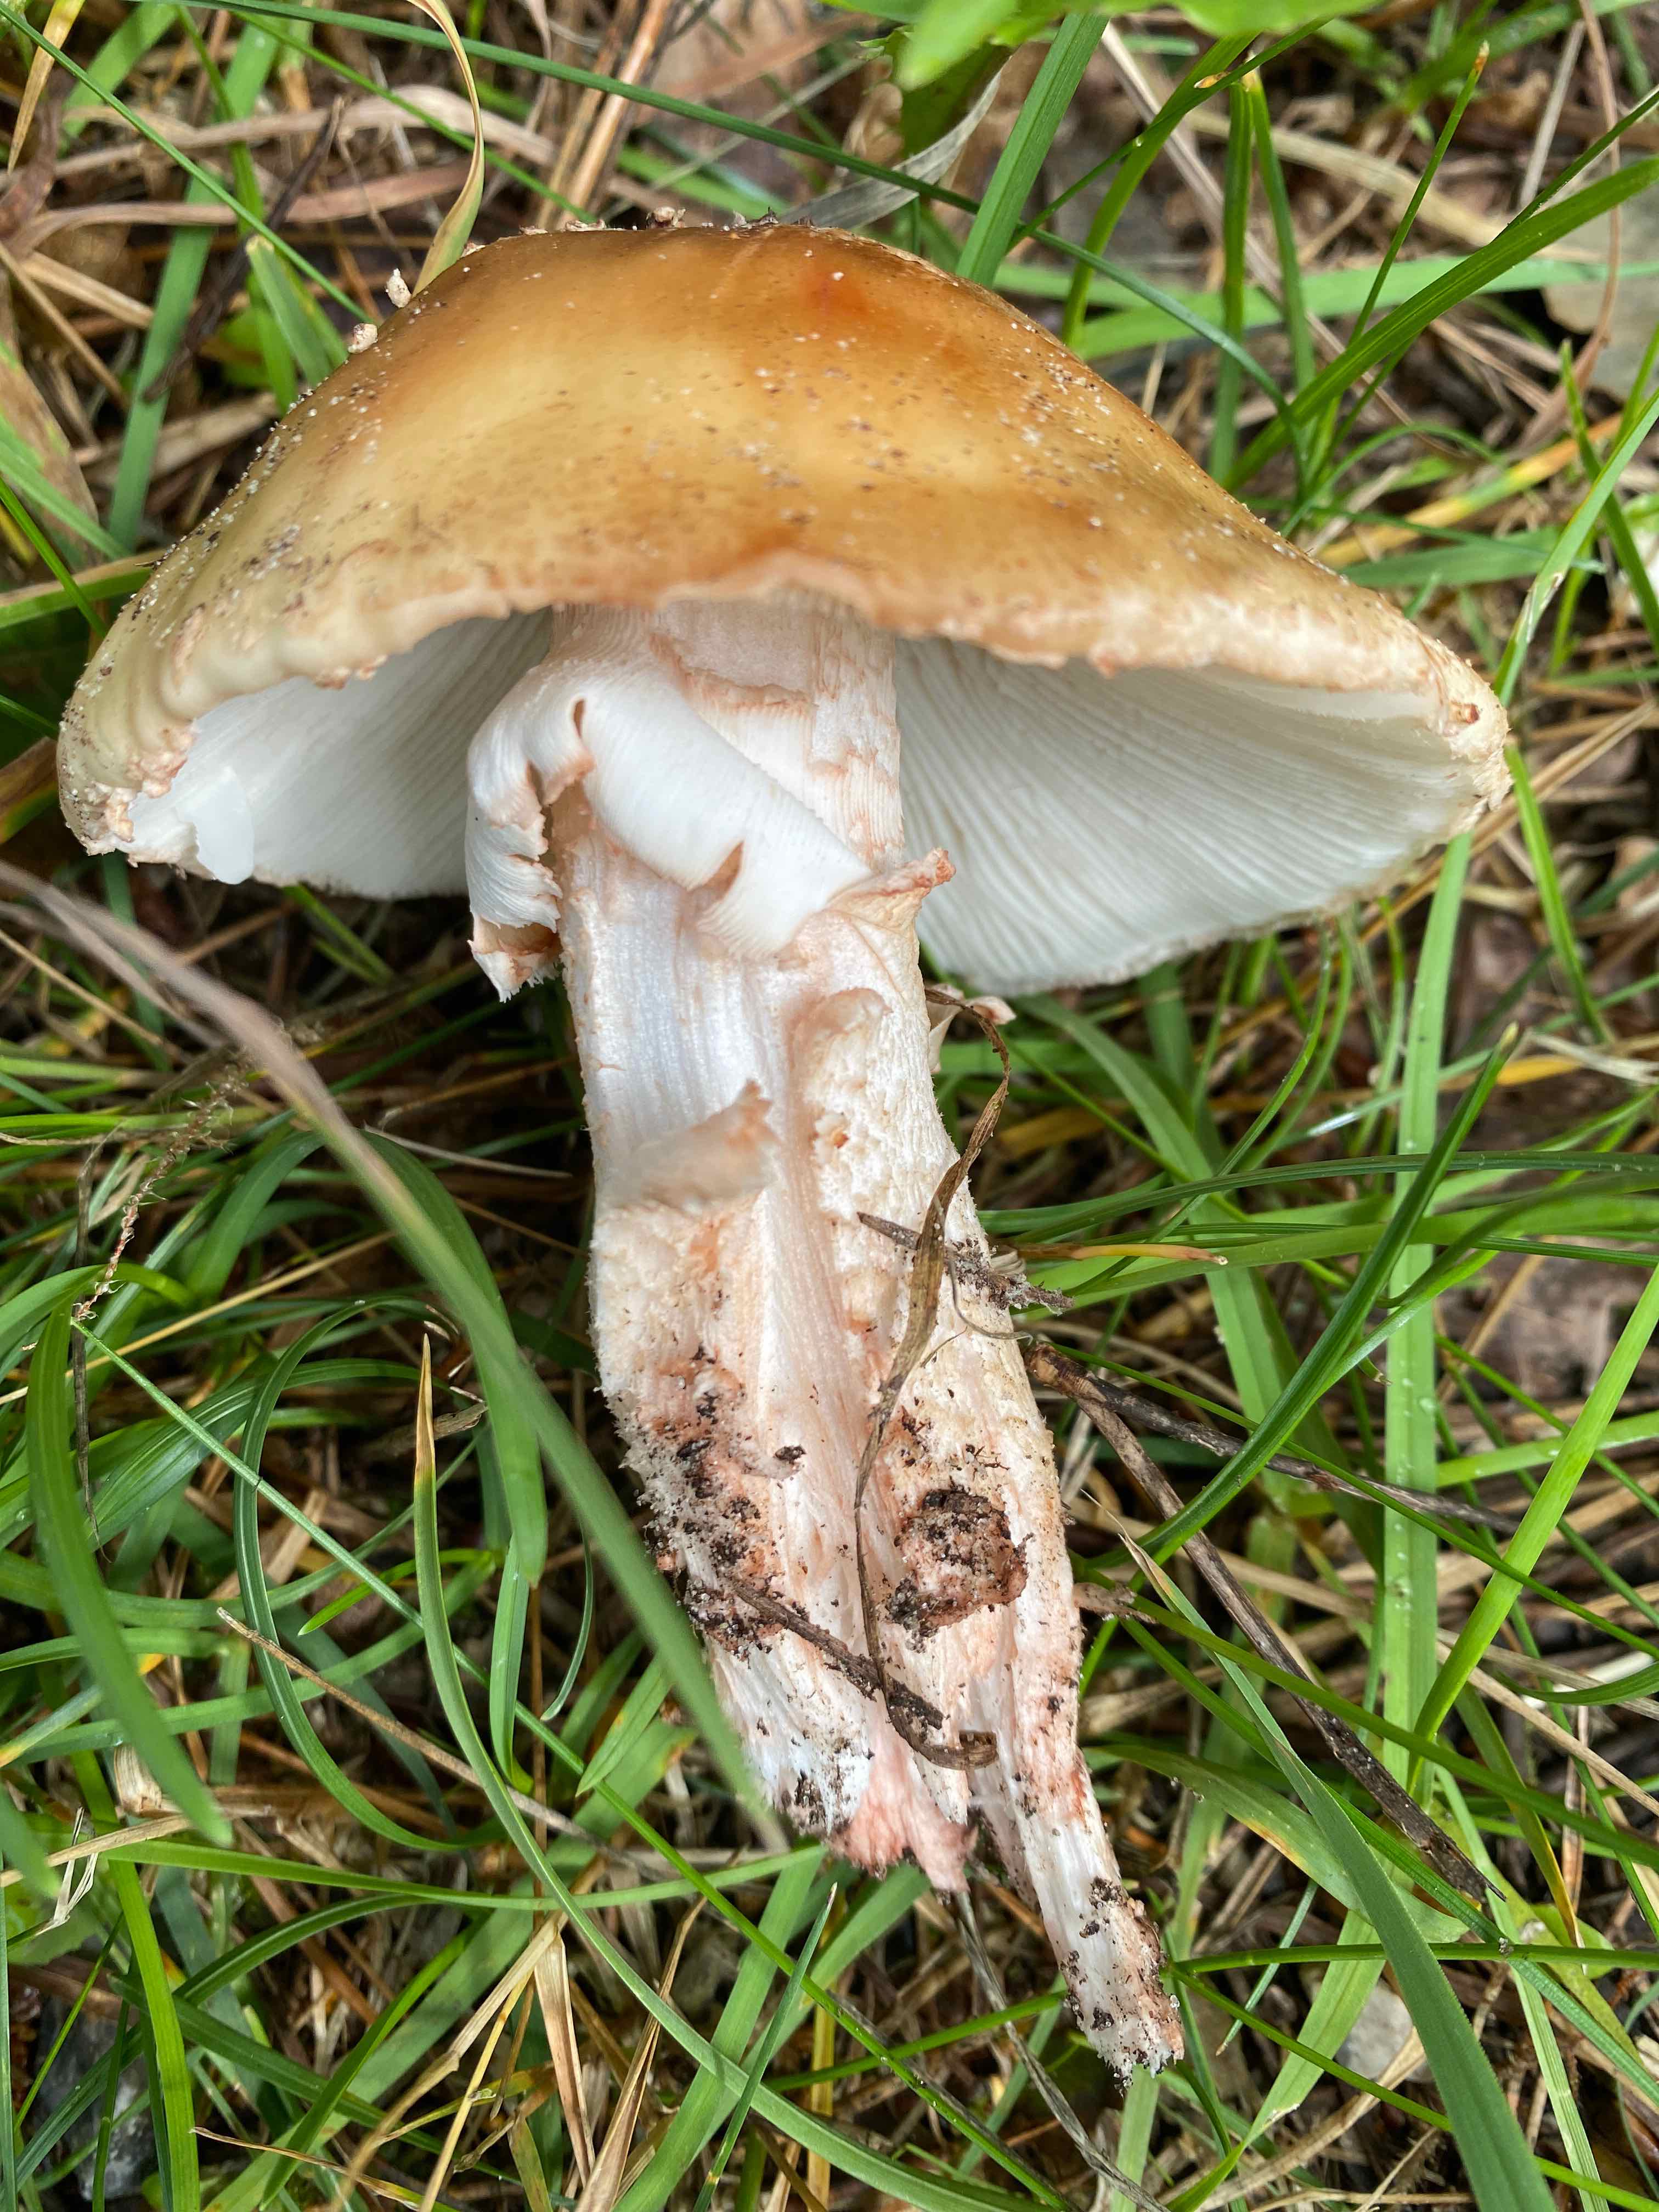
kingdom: Fungi
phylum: Basidiomycota
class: Agaricomycetes
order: Agaricales
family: Amanitaceae
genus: Amanita
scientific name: Amanita rubescens
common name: rødmende fluesvamp
